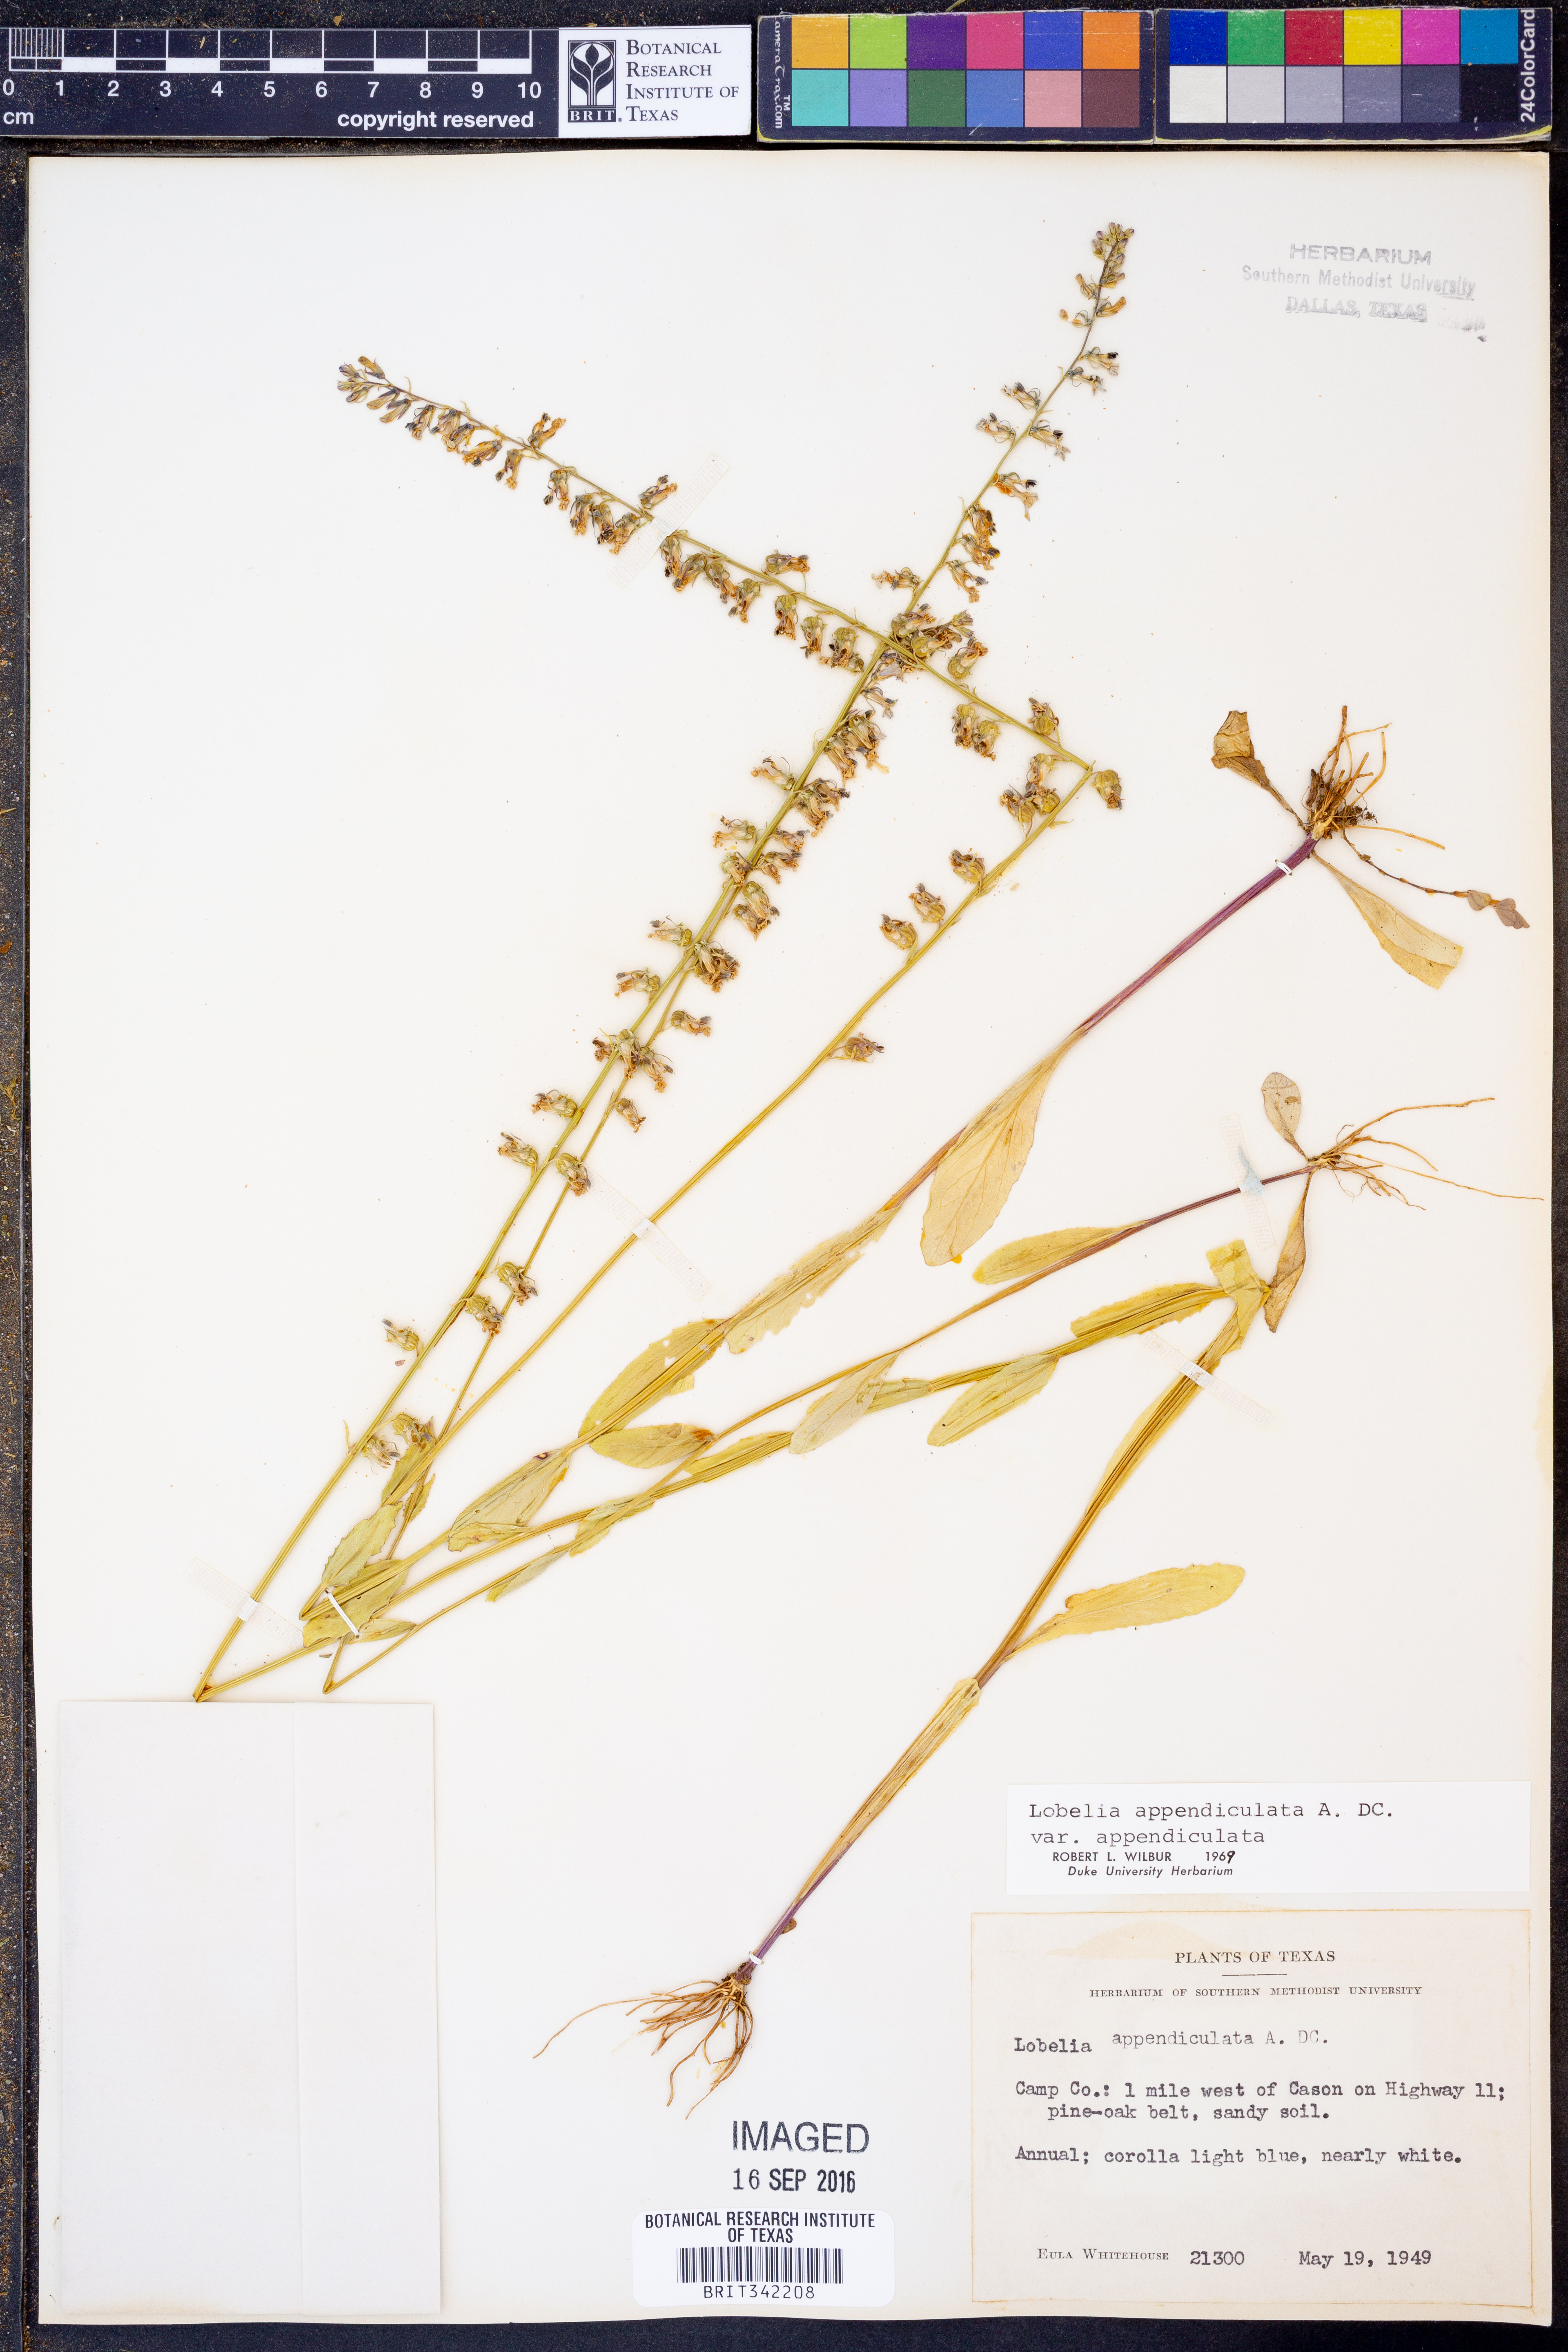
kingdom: Plantae
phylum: Tracheophyta
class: Magnoliopsida
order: Asterales
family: Campanulaceae
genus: Lobelia
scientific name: Lobelia appendiculata
